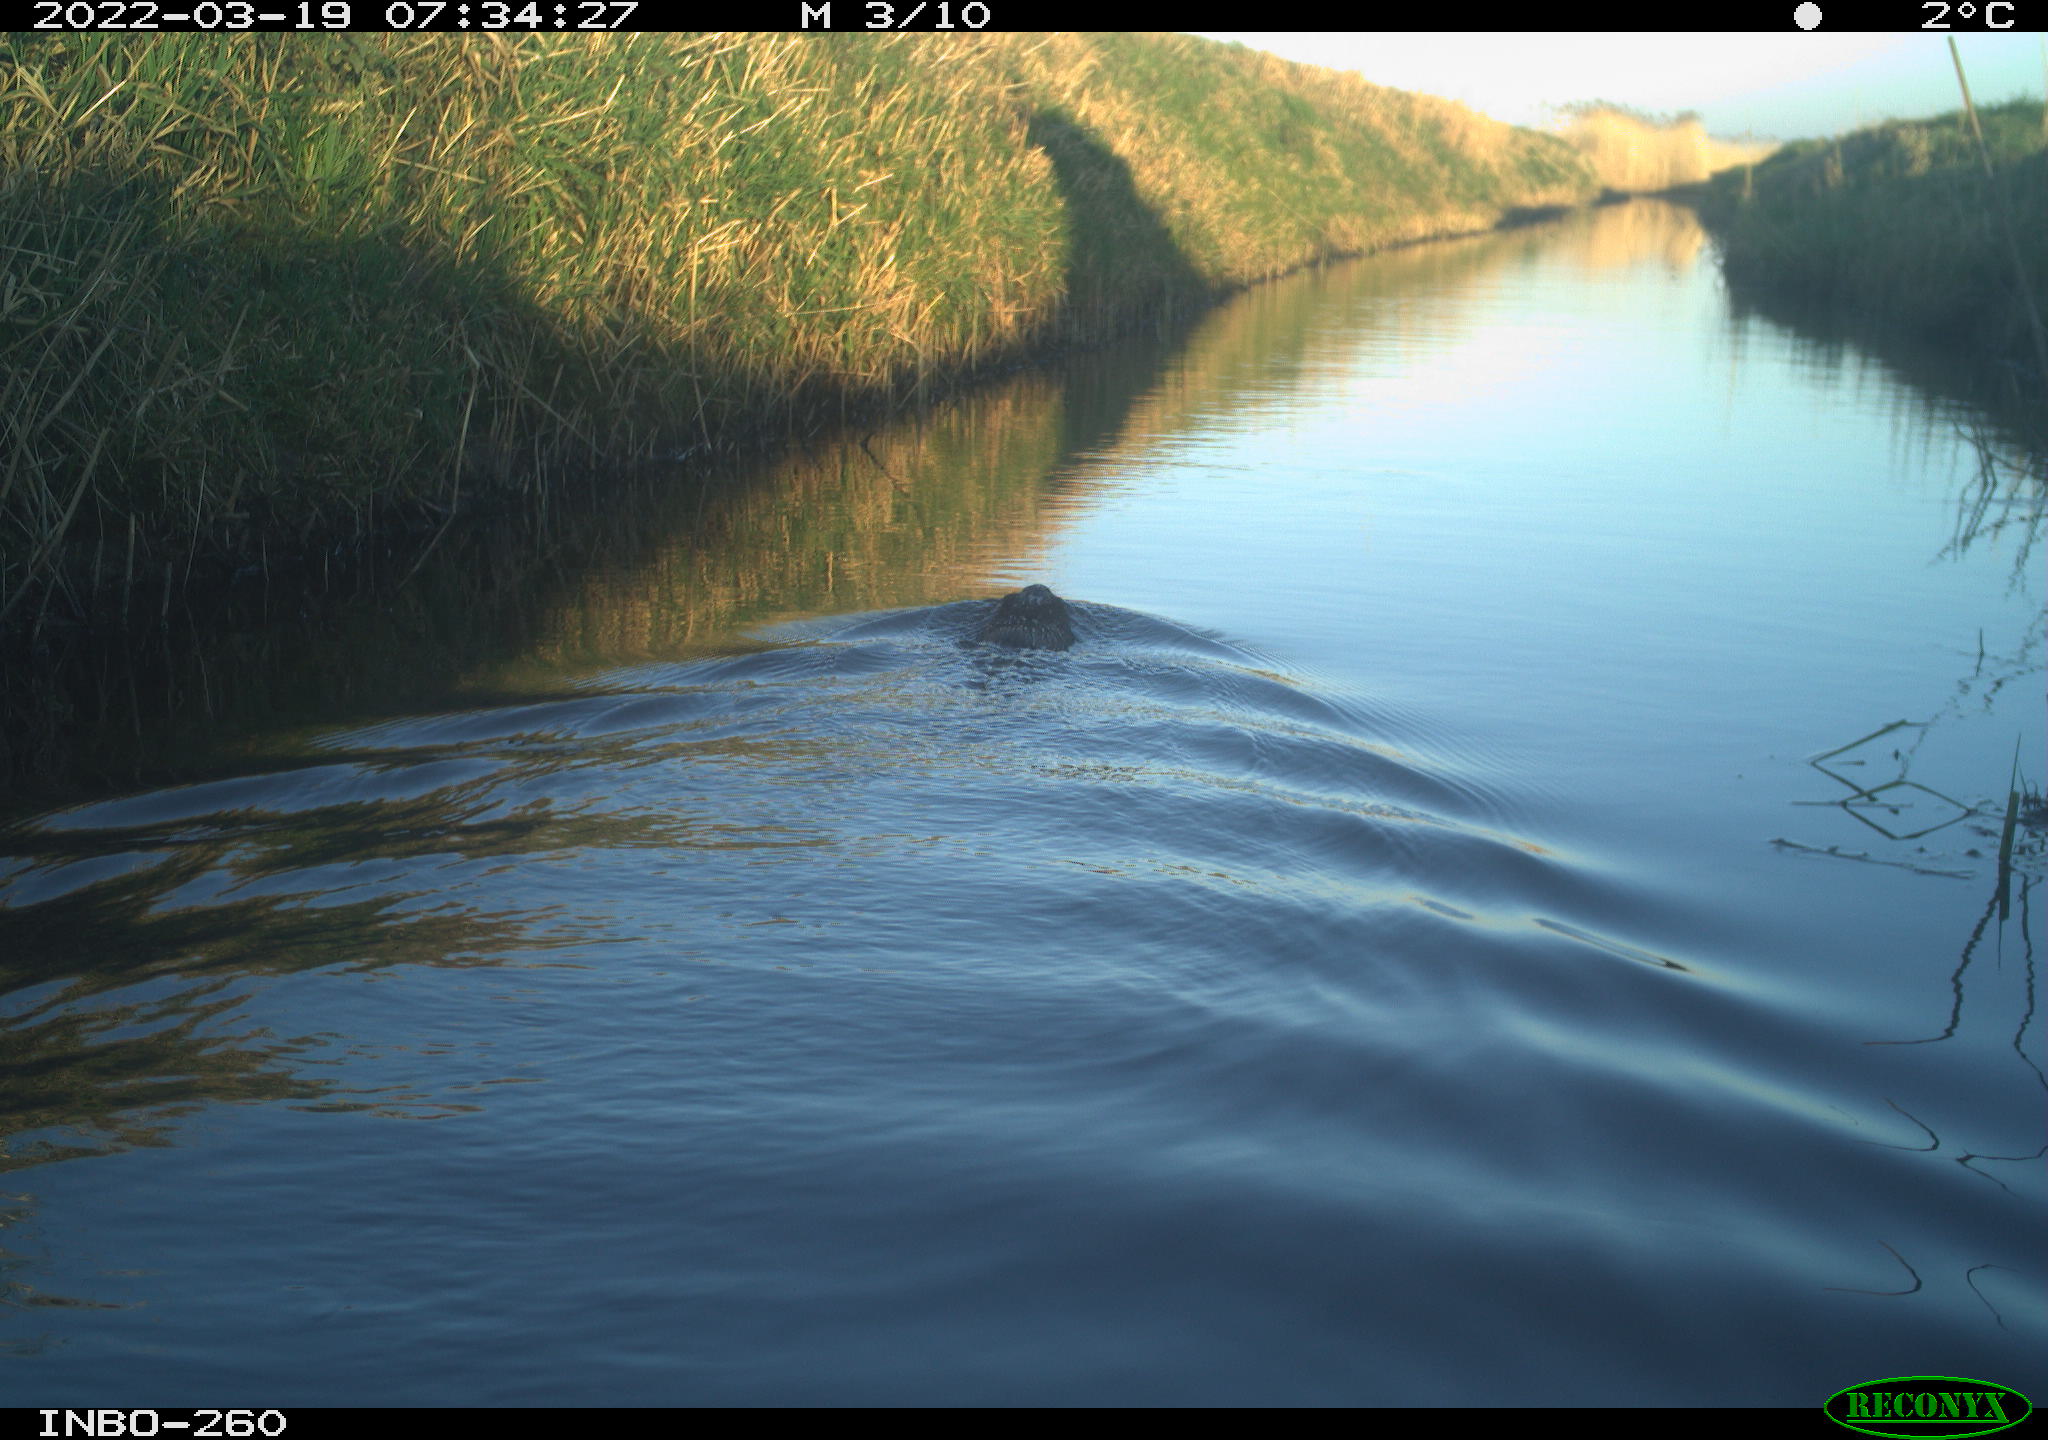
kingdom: Animalia
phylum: Chordata
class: Mammalia
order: Rodentia
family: Cricetidae
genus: Ondatra
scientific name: Ondatra zibethicus
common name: Muskrat
